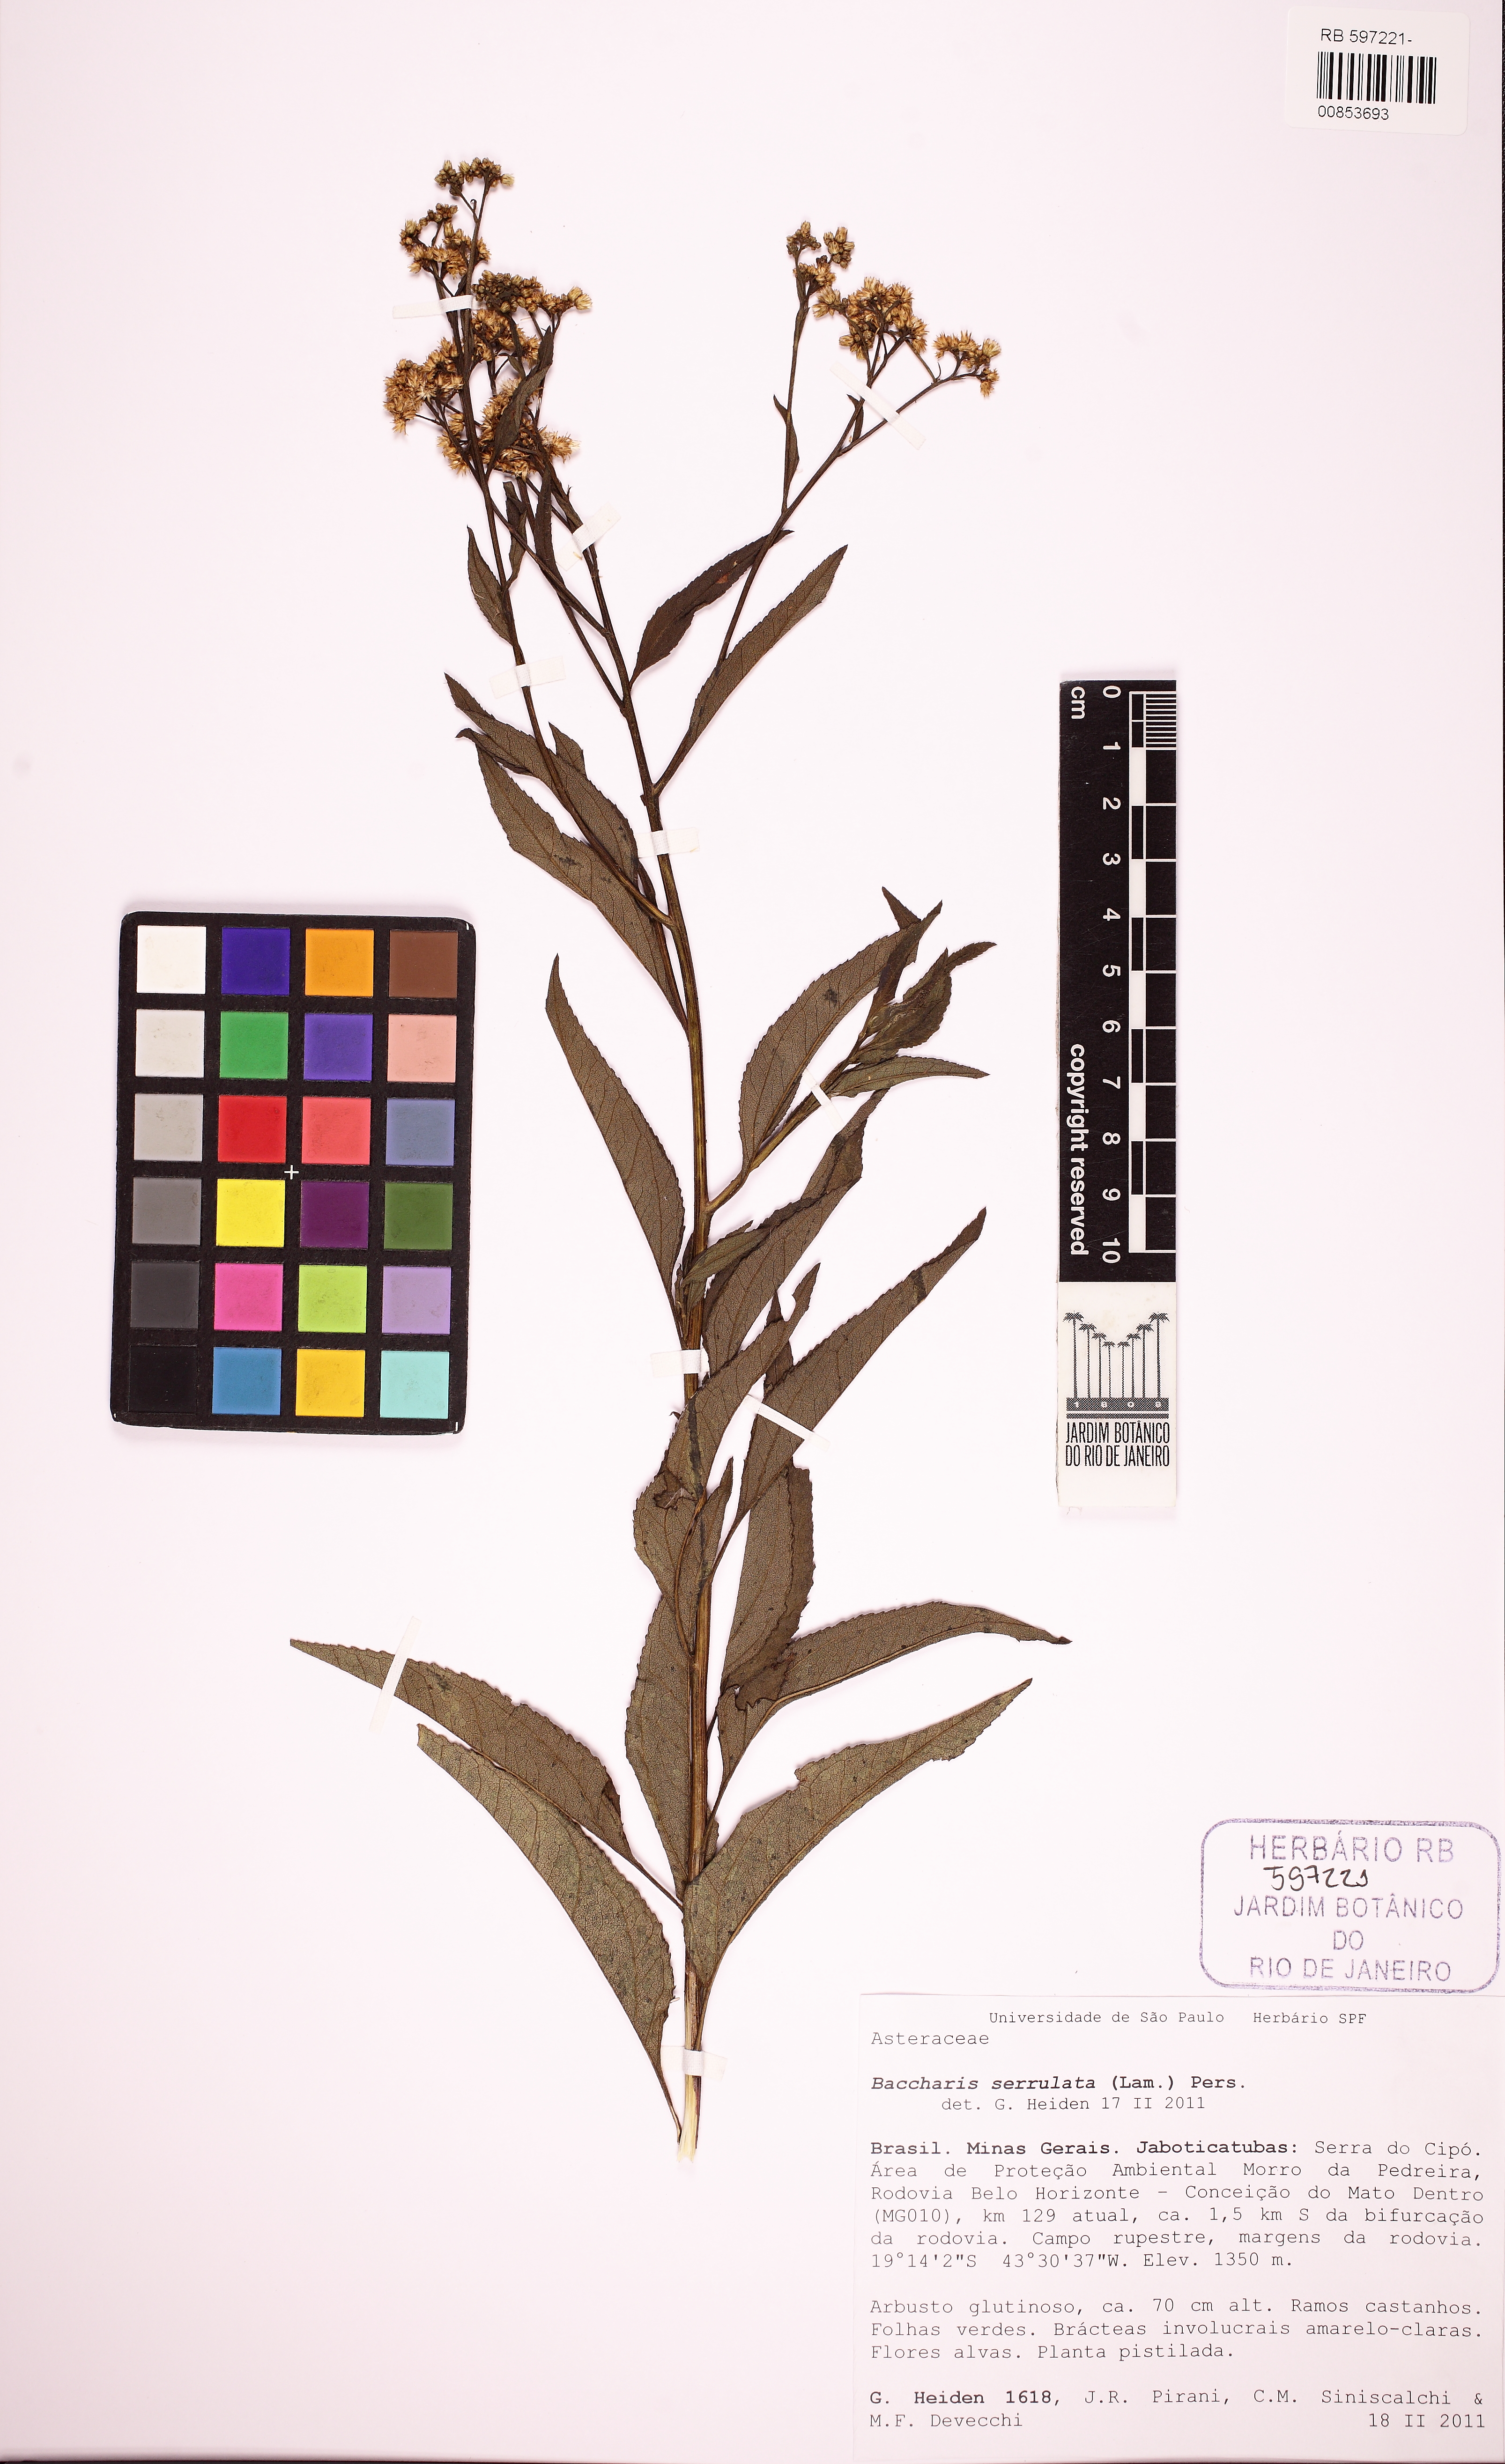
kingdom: Plantae
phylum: Tracheophyta
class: Magnoliopsida
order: Asterales
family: Asteraceae
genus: Baccharis
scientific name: Baccharis serrulata
